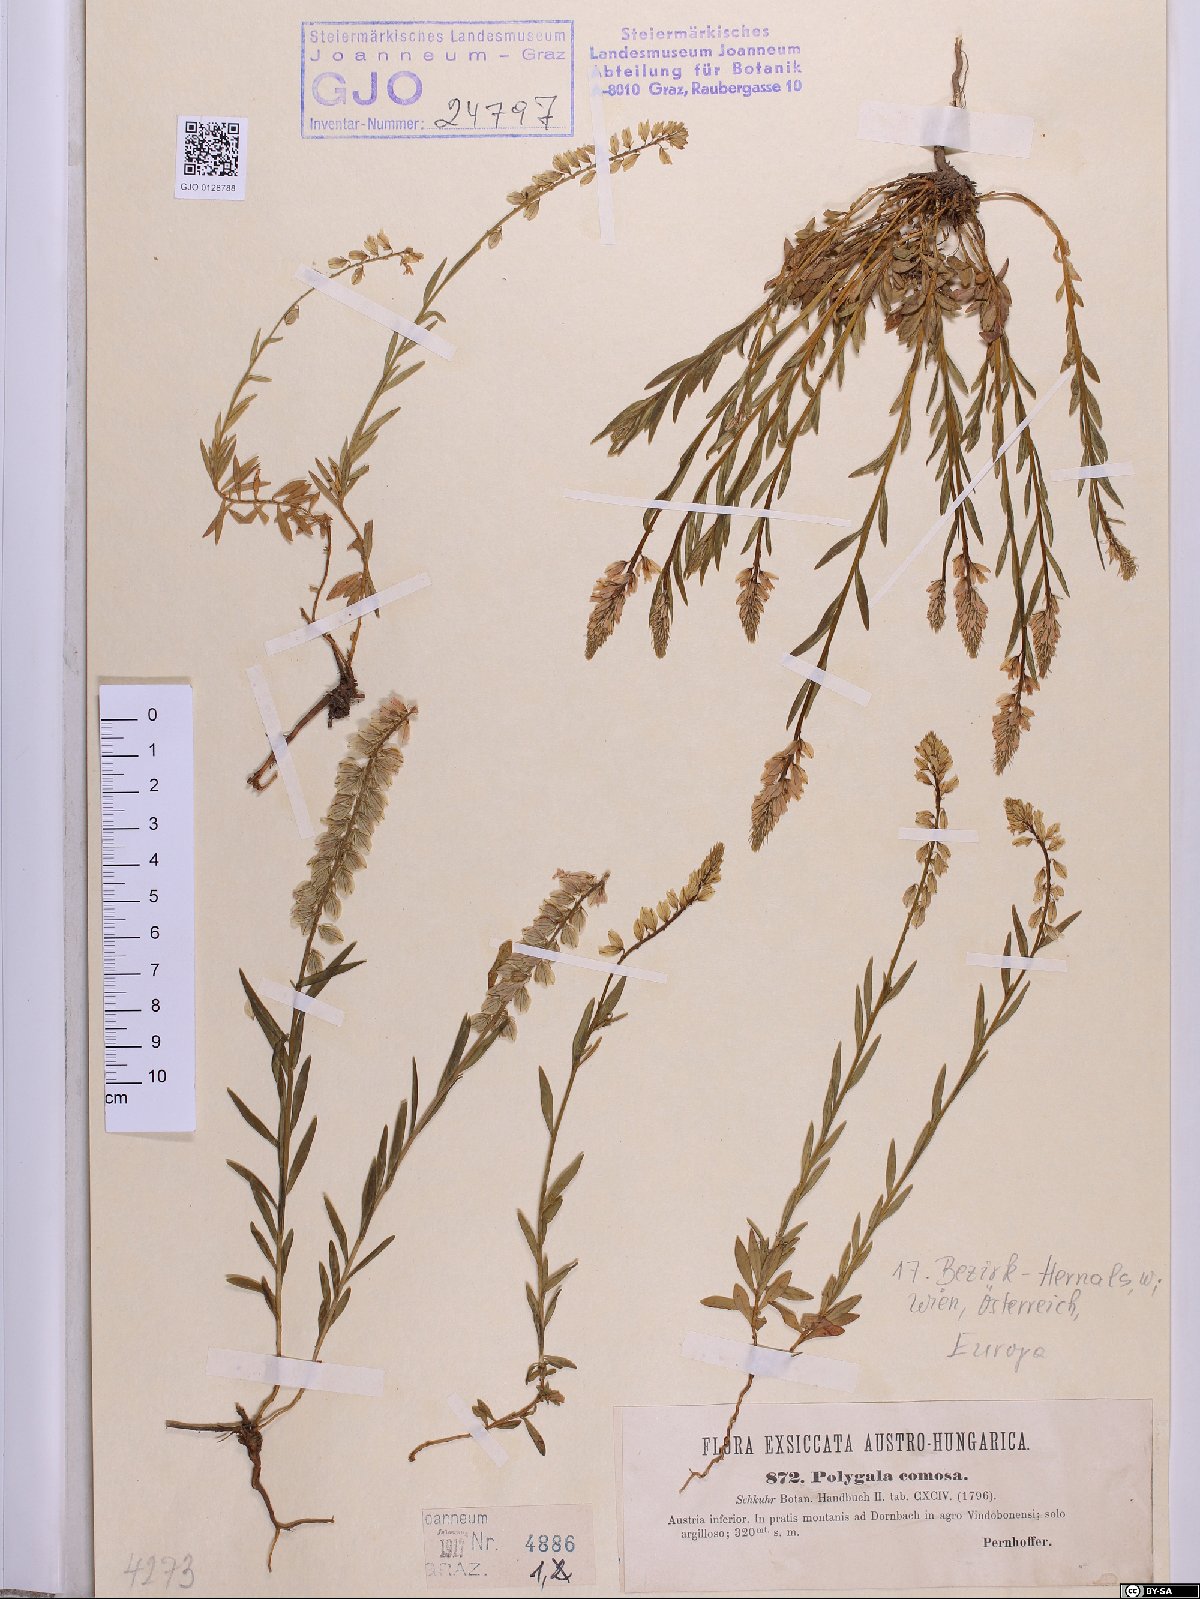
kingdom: Plantae
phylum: Tracheophyta
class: Magnoliopsida
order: Fabales
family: Polygalaceae
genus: Polygala
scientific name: Polygala comosa
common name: Tufted milkwort
